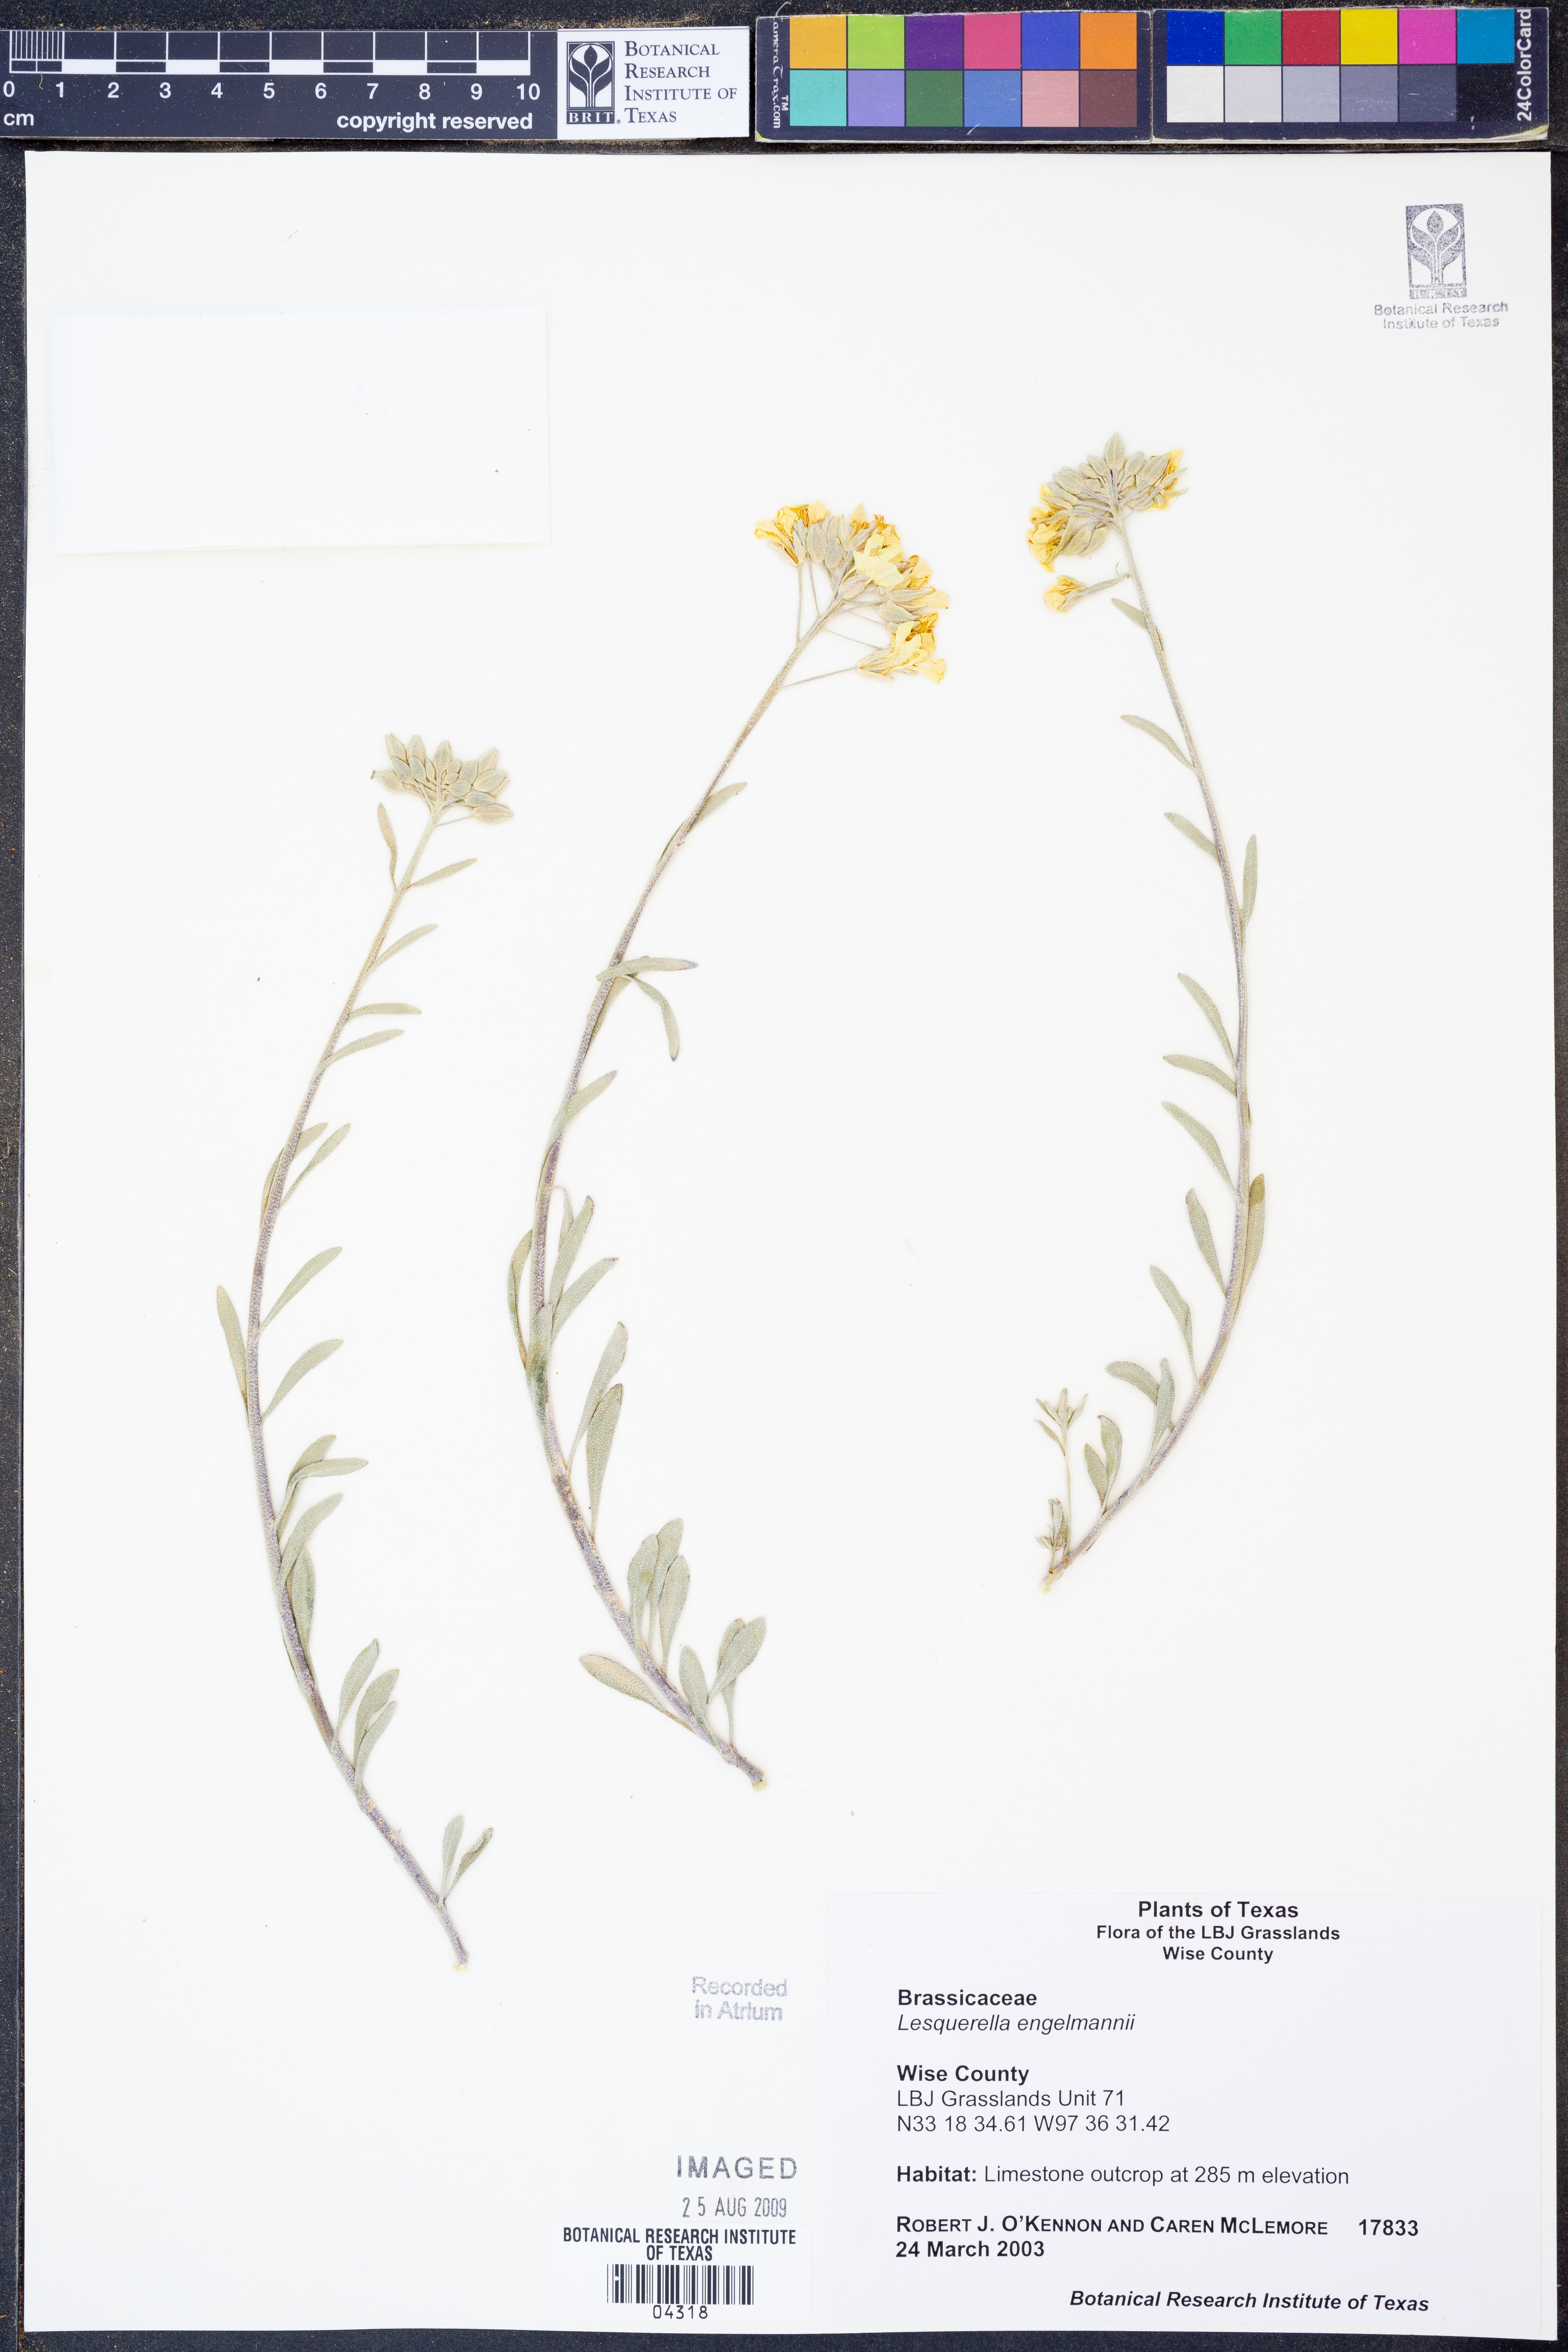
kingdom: Plantae
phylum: Tracheophyta
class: Magnoliopsida
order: Brassicales
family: Brassicaceae
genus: Physaria
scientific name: Physaria engelmannii
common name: Engelmann's bladderpod
